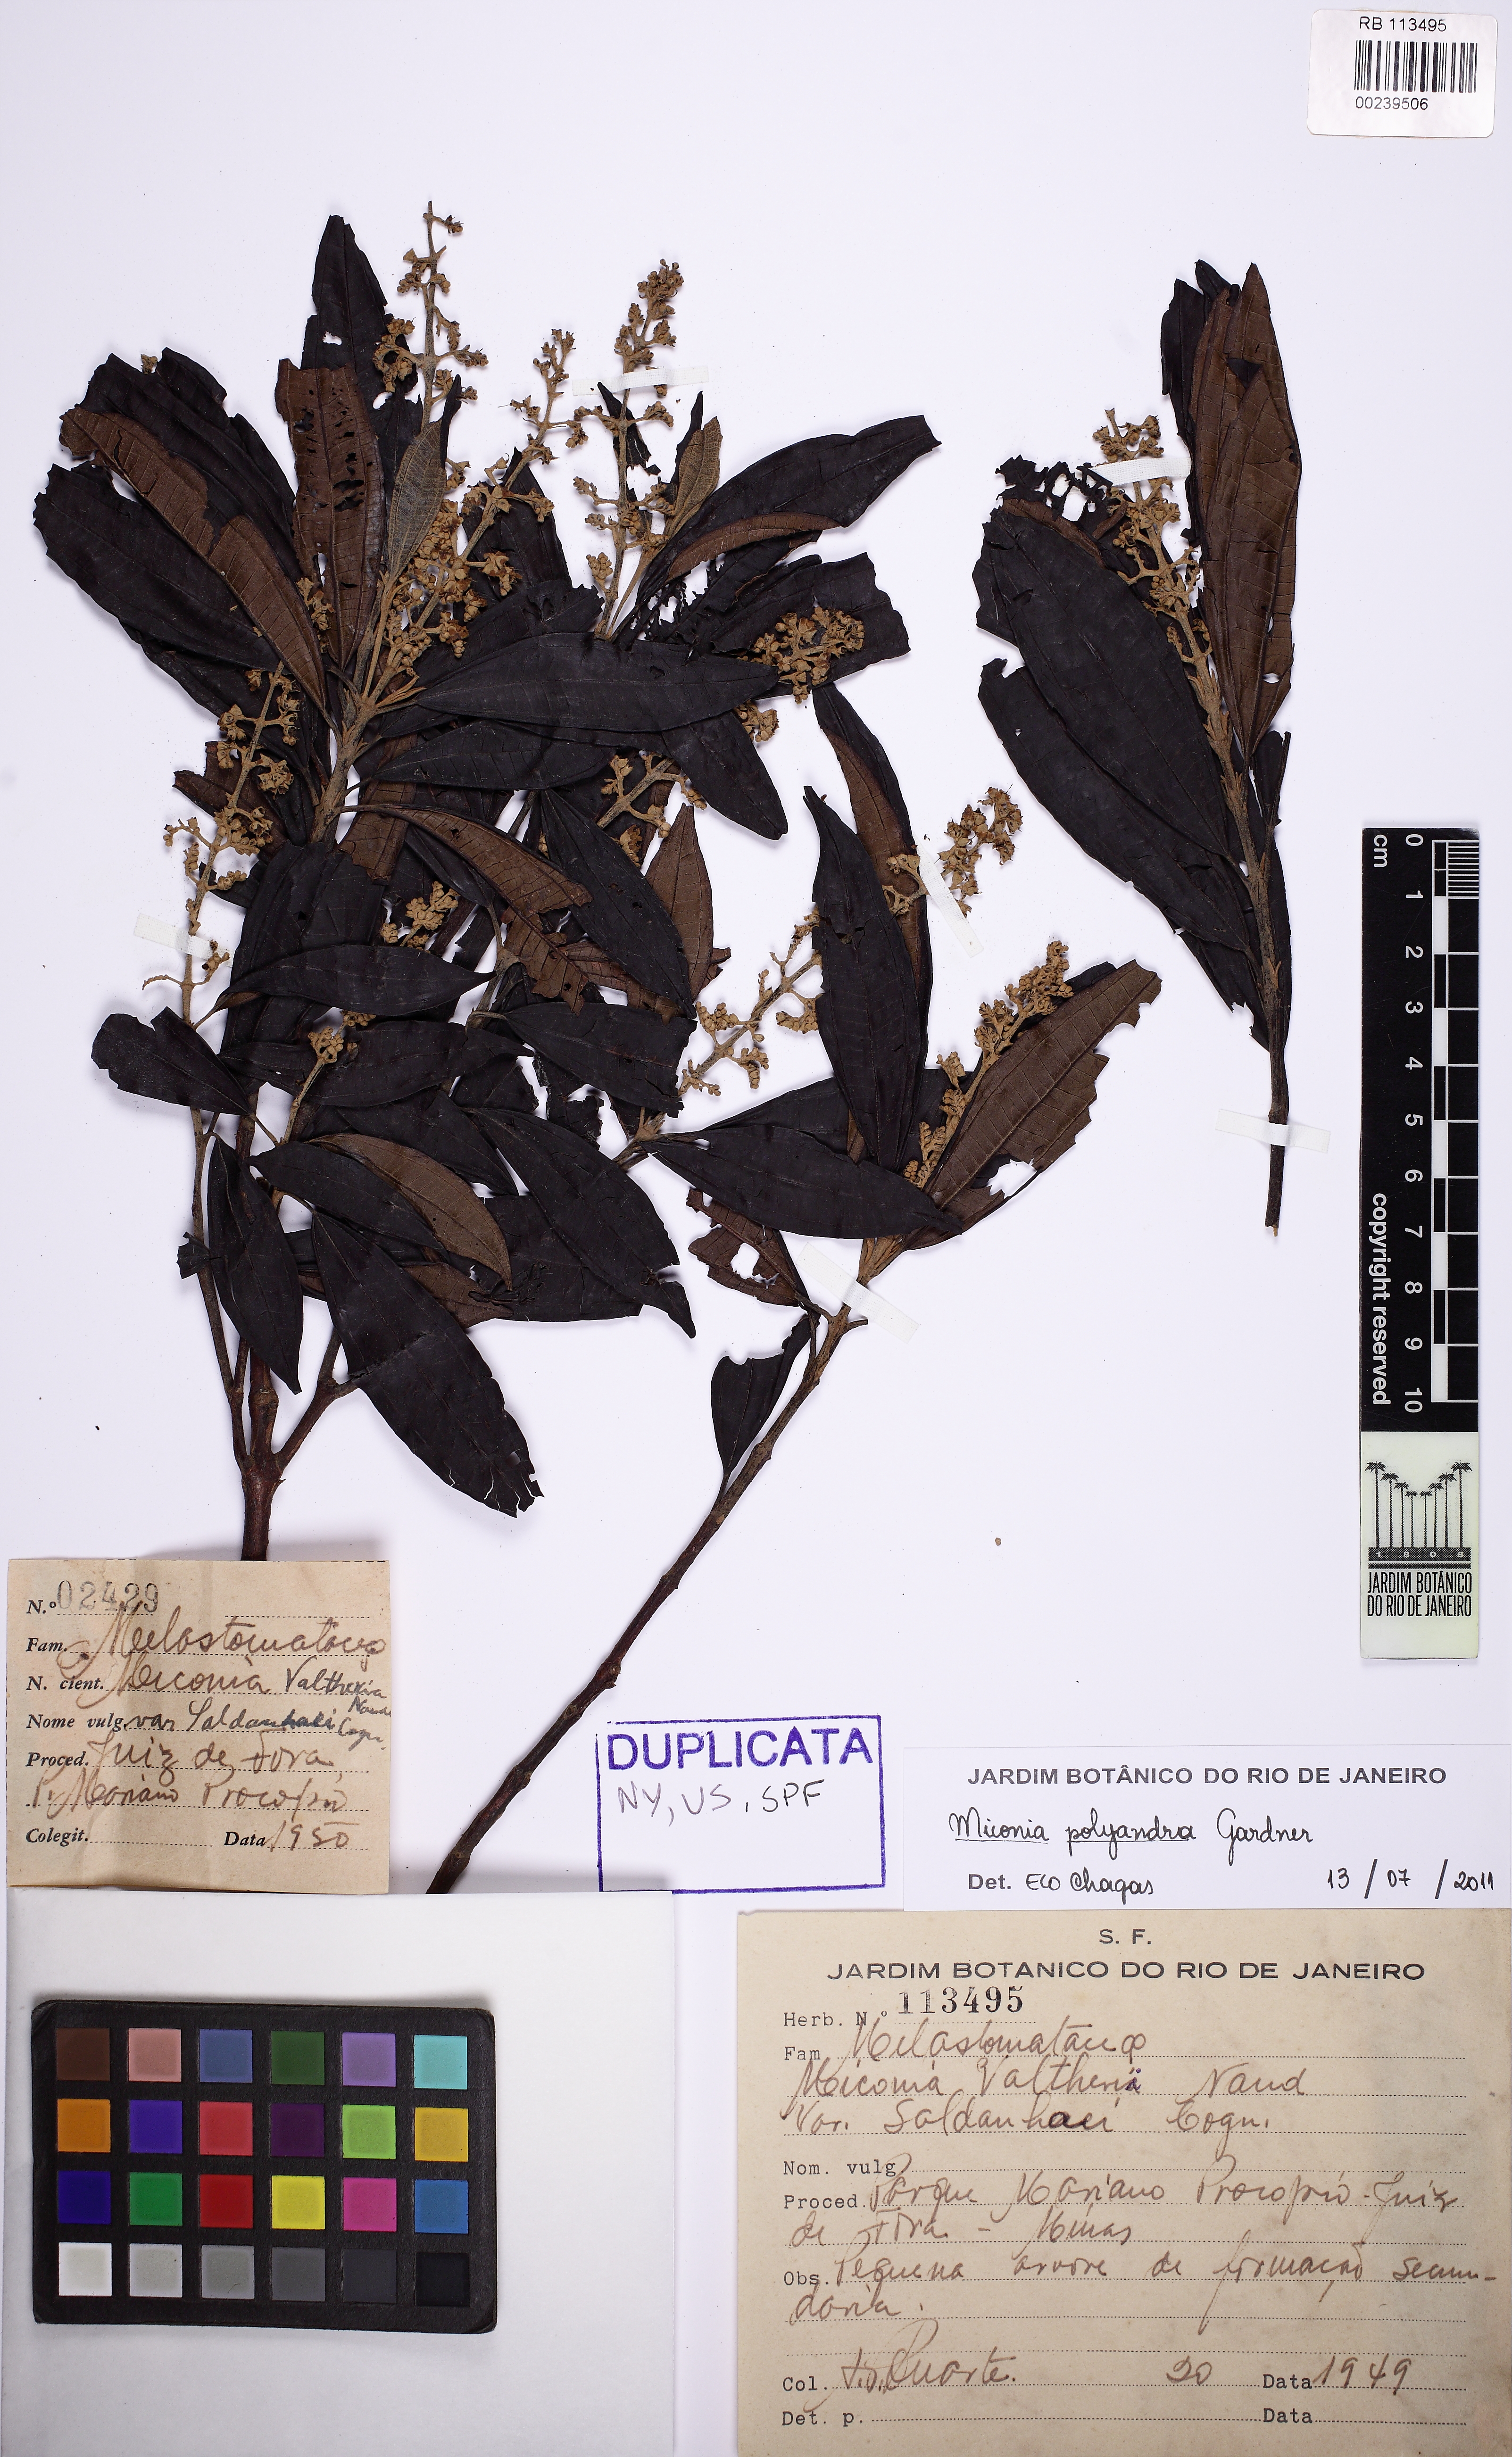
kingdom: Plantae
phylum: Tracheophyta
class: Magnoliopsida
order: Myrtales
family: Melastomataceae
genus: Miconia
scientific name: Miconia polyandra
